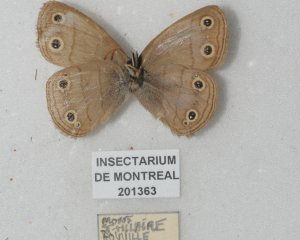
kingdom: Animalia
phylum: Arthropoda
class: Insecta
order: Lepidoptera
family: Nymphalidae
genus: Euptychia
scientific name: Euptychia cymela
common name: Little Wood Satyr
